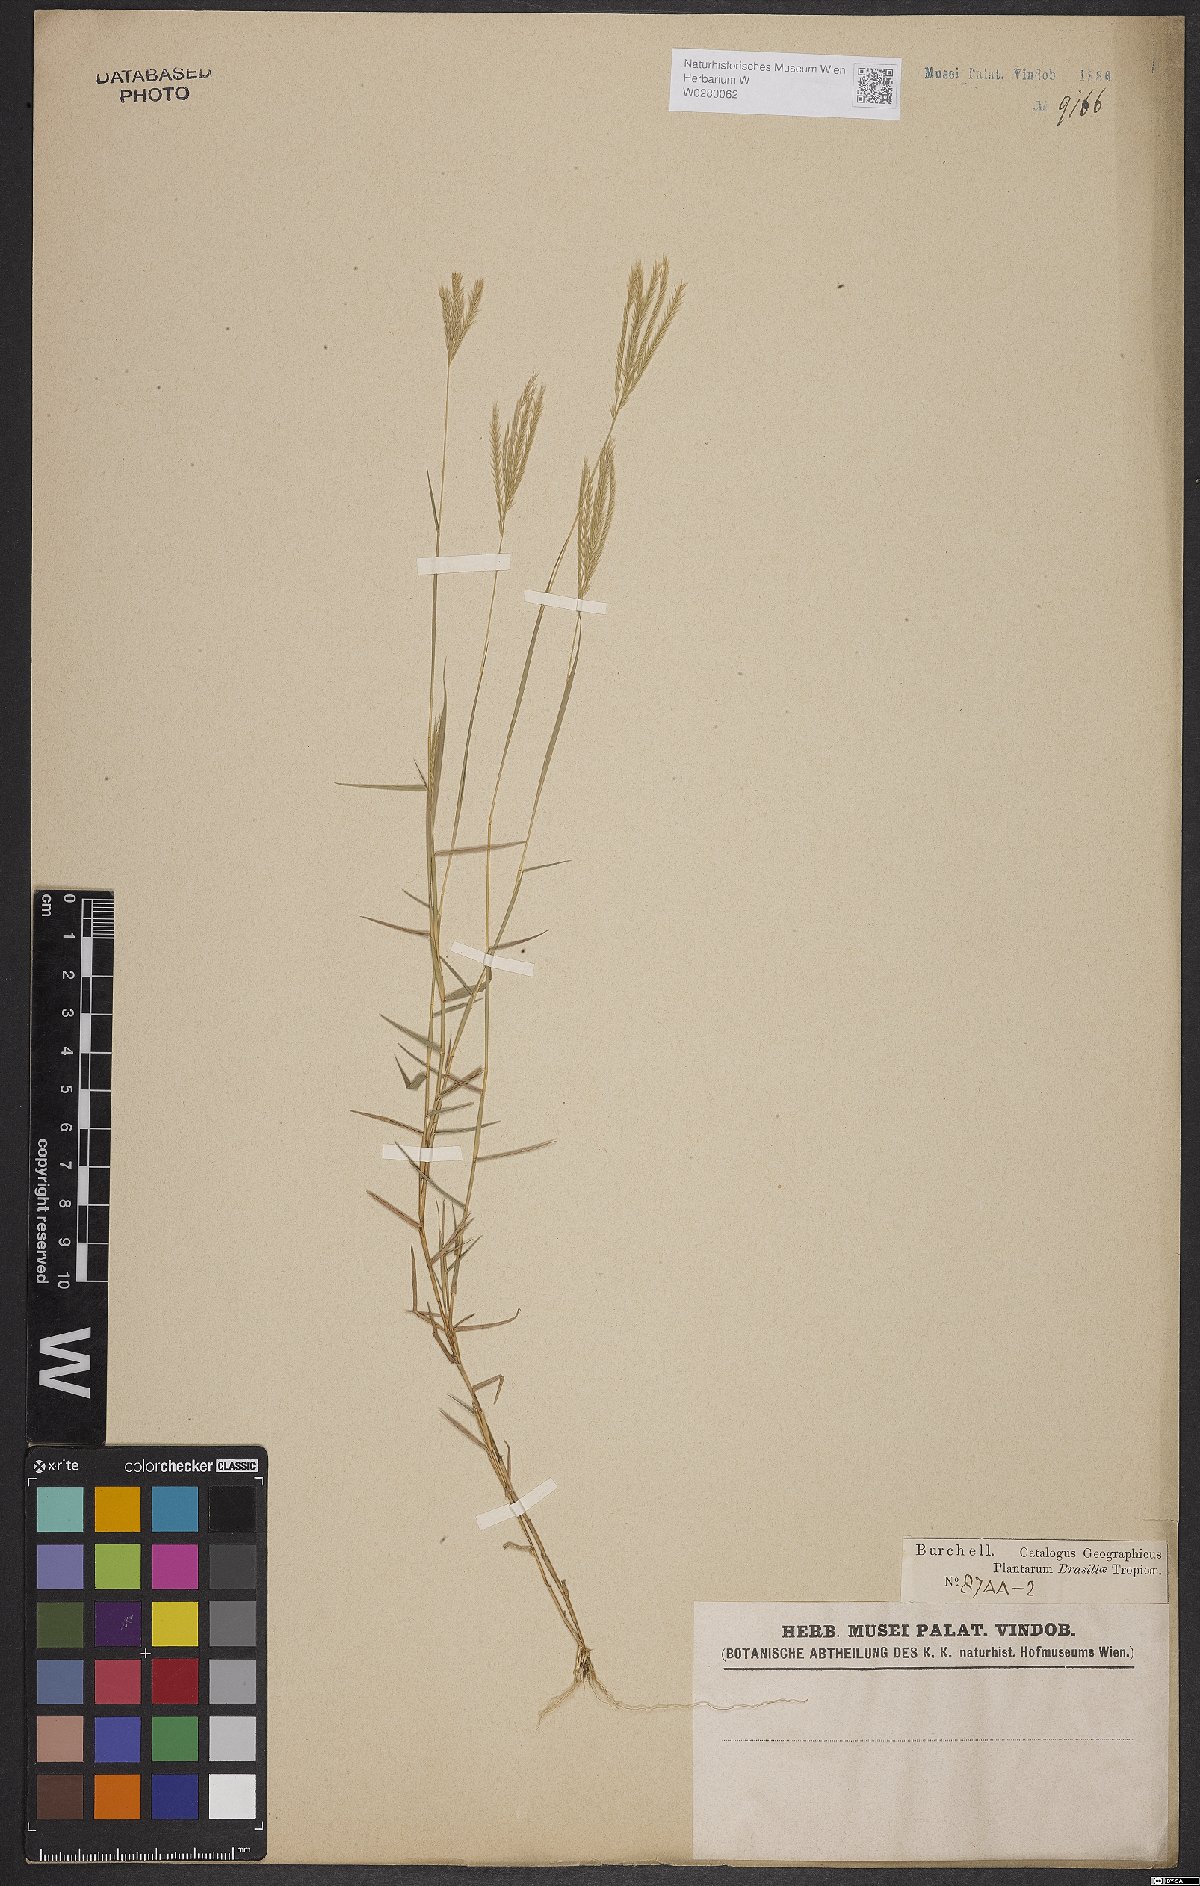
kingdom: Plantae
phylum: Tracheophyta
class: Liliopsida
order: Poales
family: Poaceae
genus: Gymnopogon
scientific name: Gymnopogon foliosus
